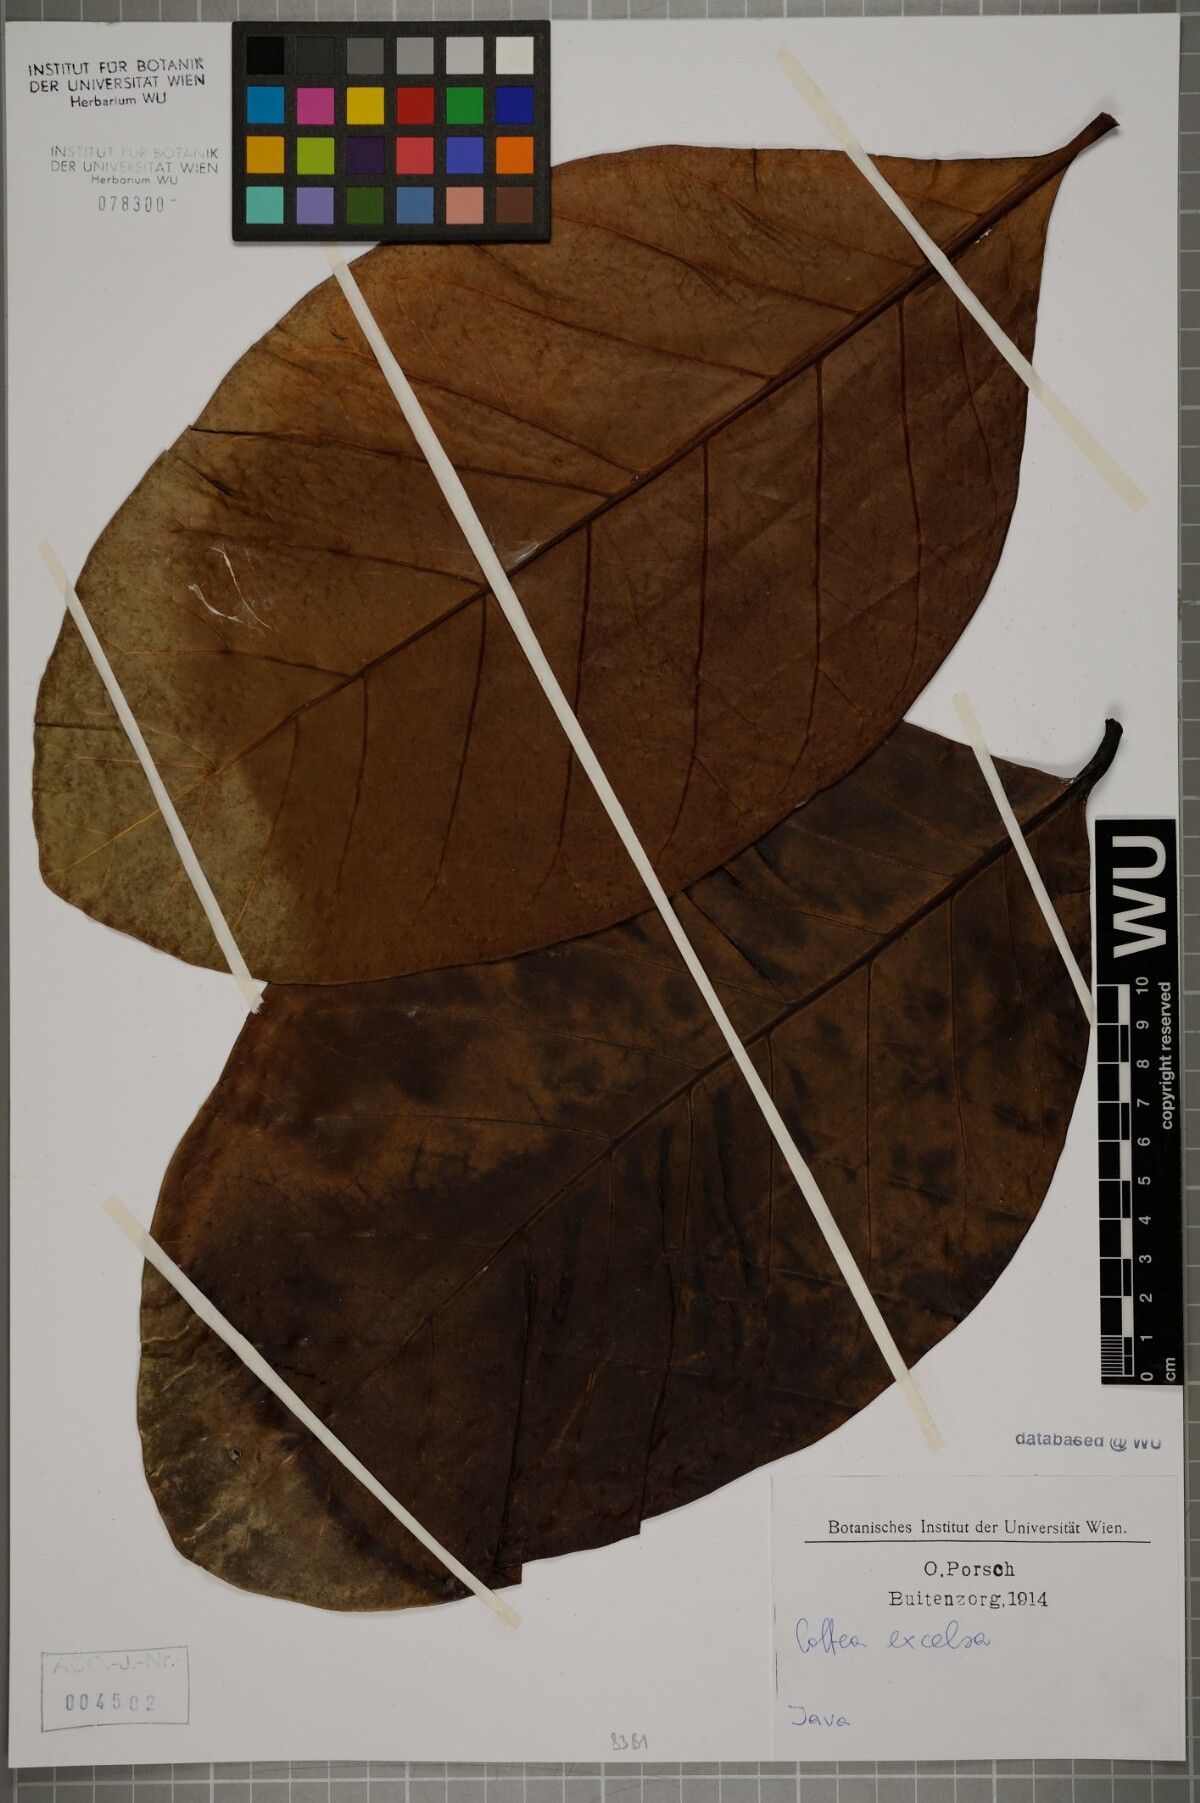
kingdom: Plantae
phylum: Tracheophyta
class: Magnoliopsida
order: Gentianales
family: Rubiaceae
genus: Coffea
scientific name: Coffea liberica
